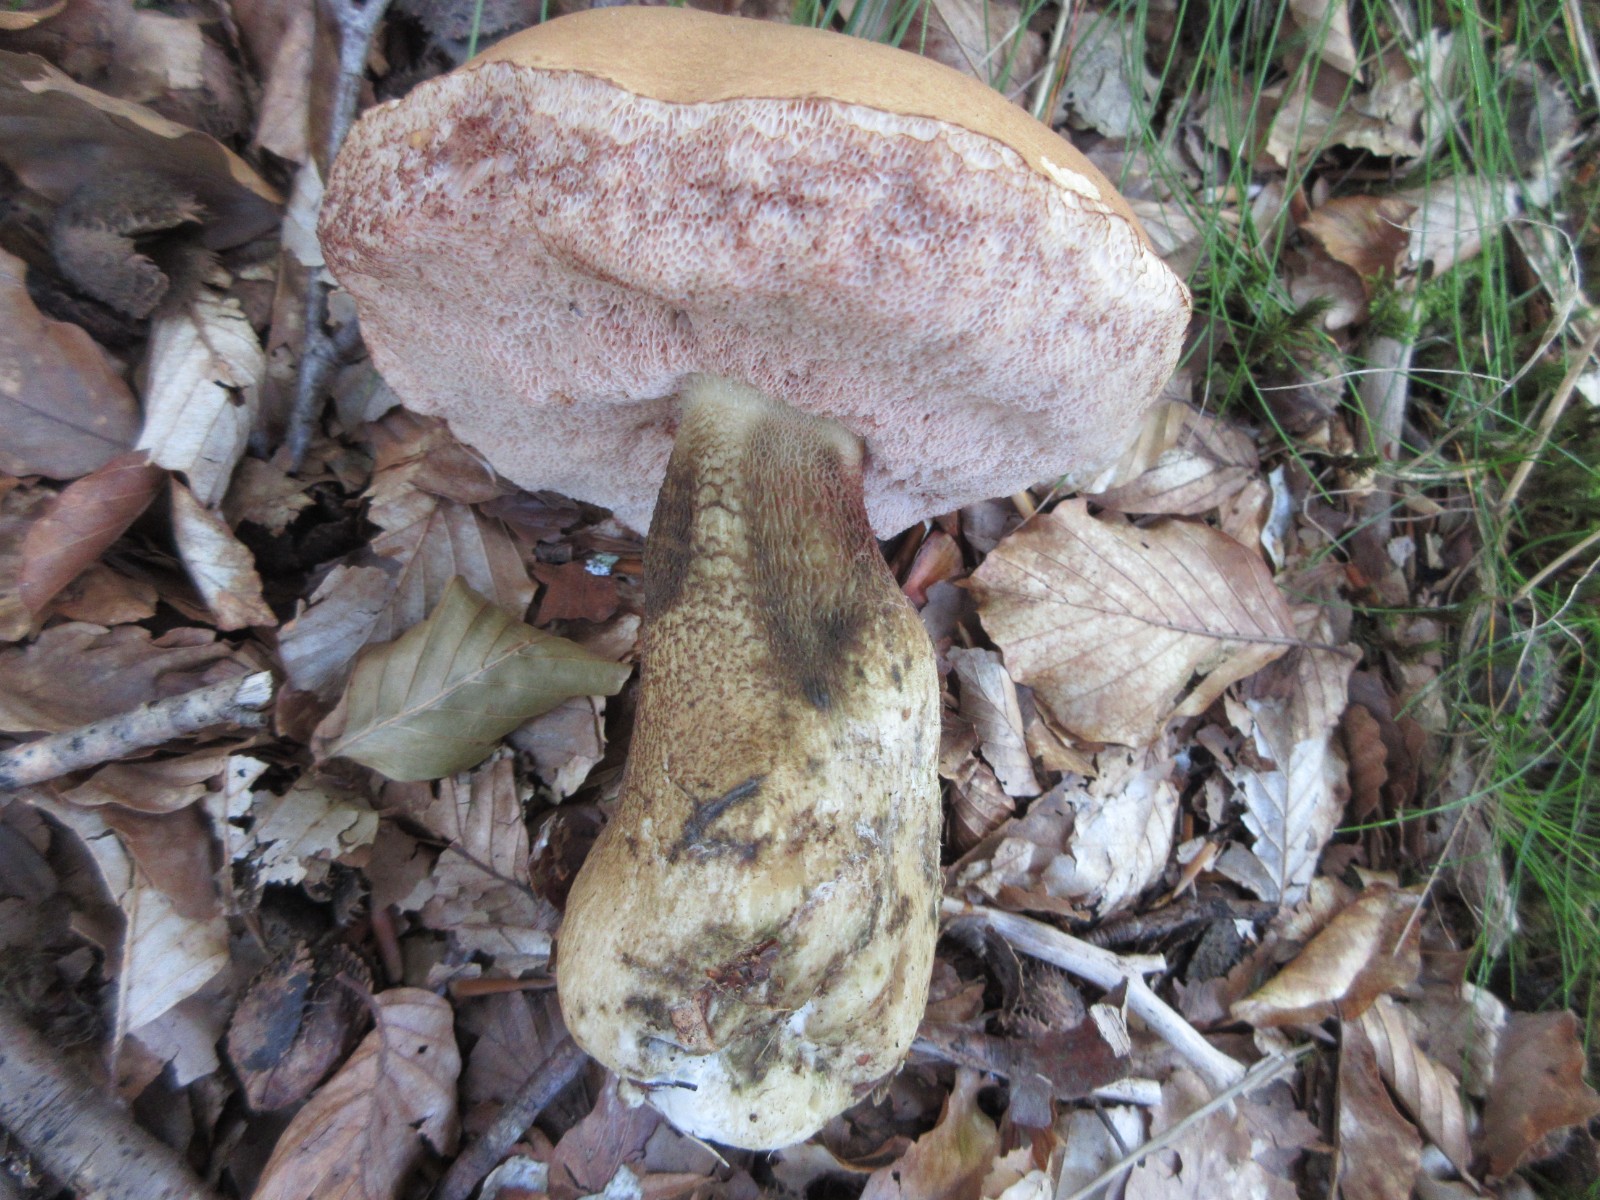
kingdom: Fungi
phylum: Basidiomycota
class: Agaricomycetes
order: Boletales
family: Boletaceae
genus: Tylopilus
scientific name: Tylopilus felleus
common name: galderørhat
